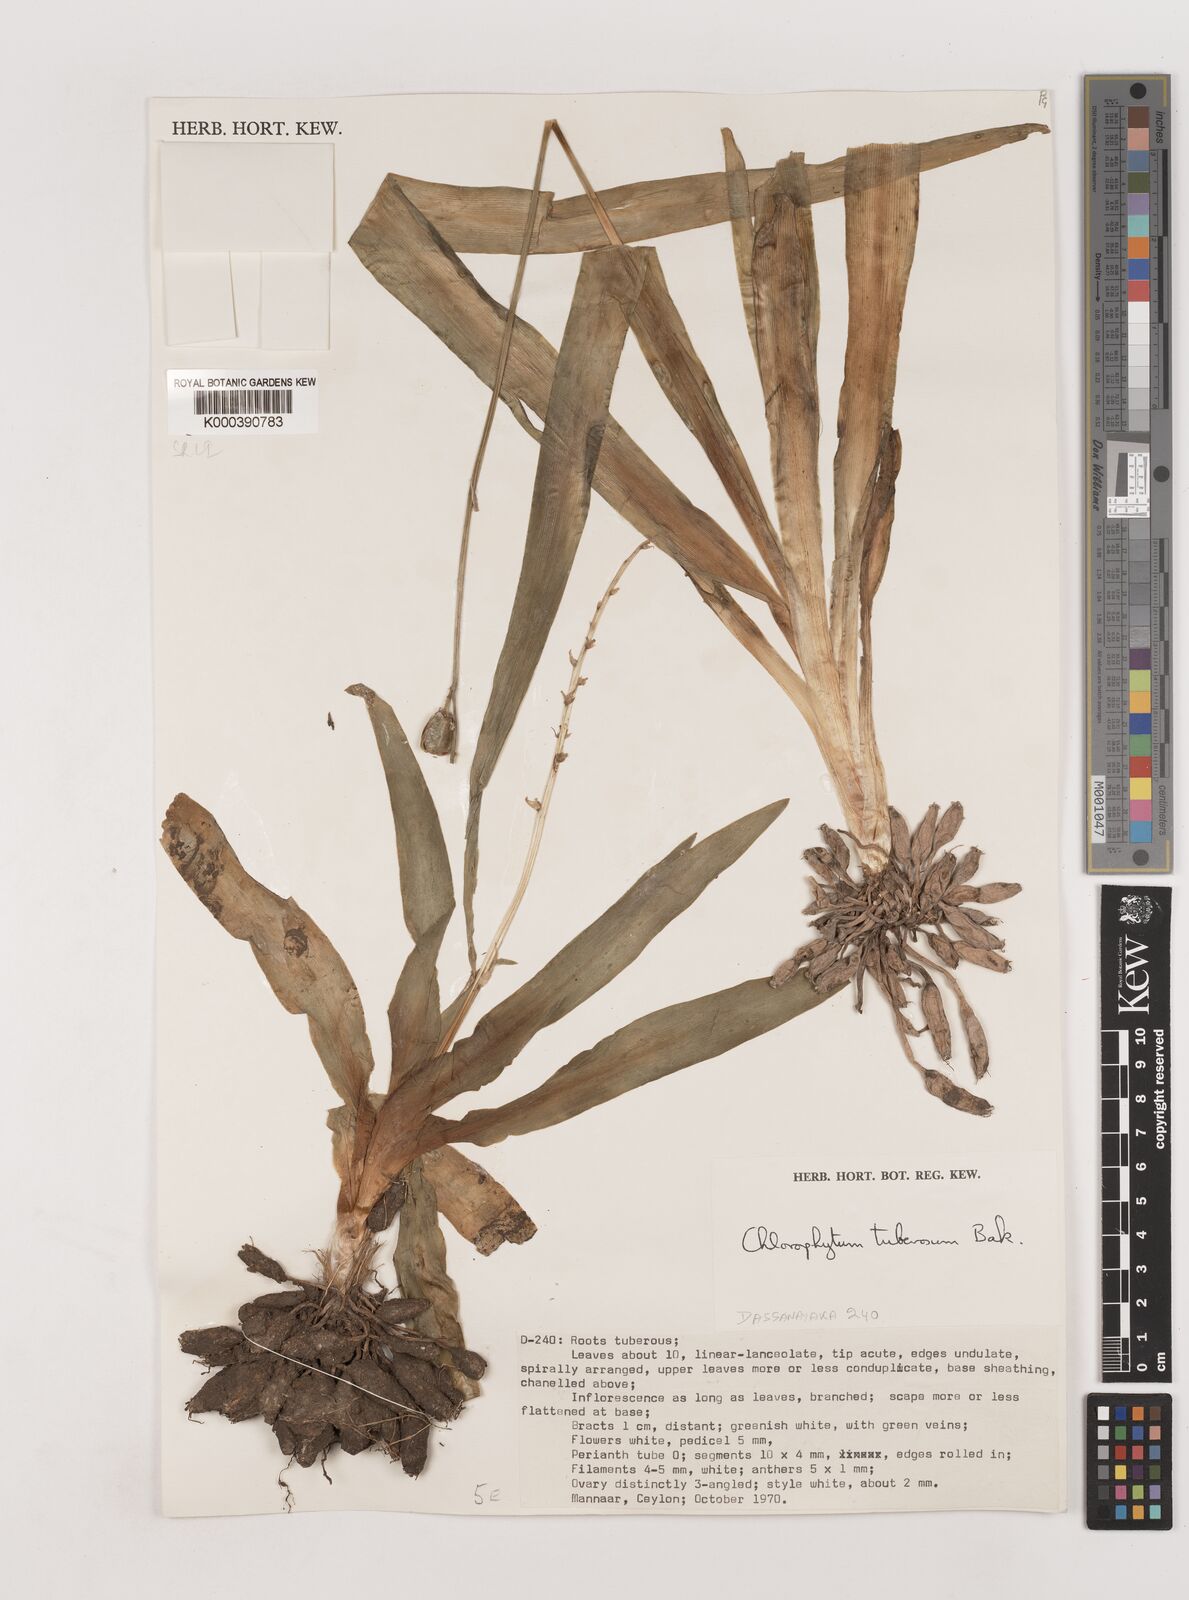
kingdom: Plantae
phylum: Tracheophyta
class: Liliopsida
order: Asparagales
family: Asparagaceae
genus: Chlorophytum
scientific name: Chlorophytum tuberosum
